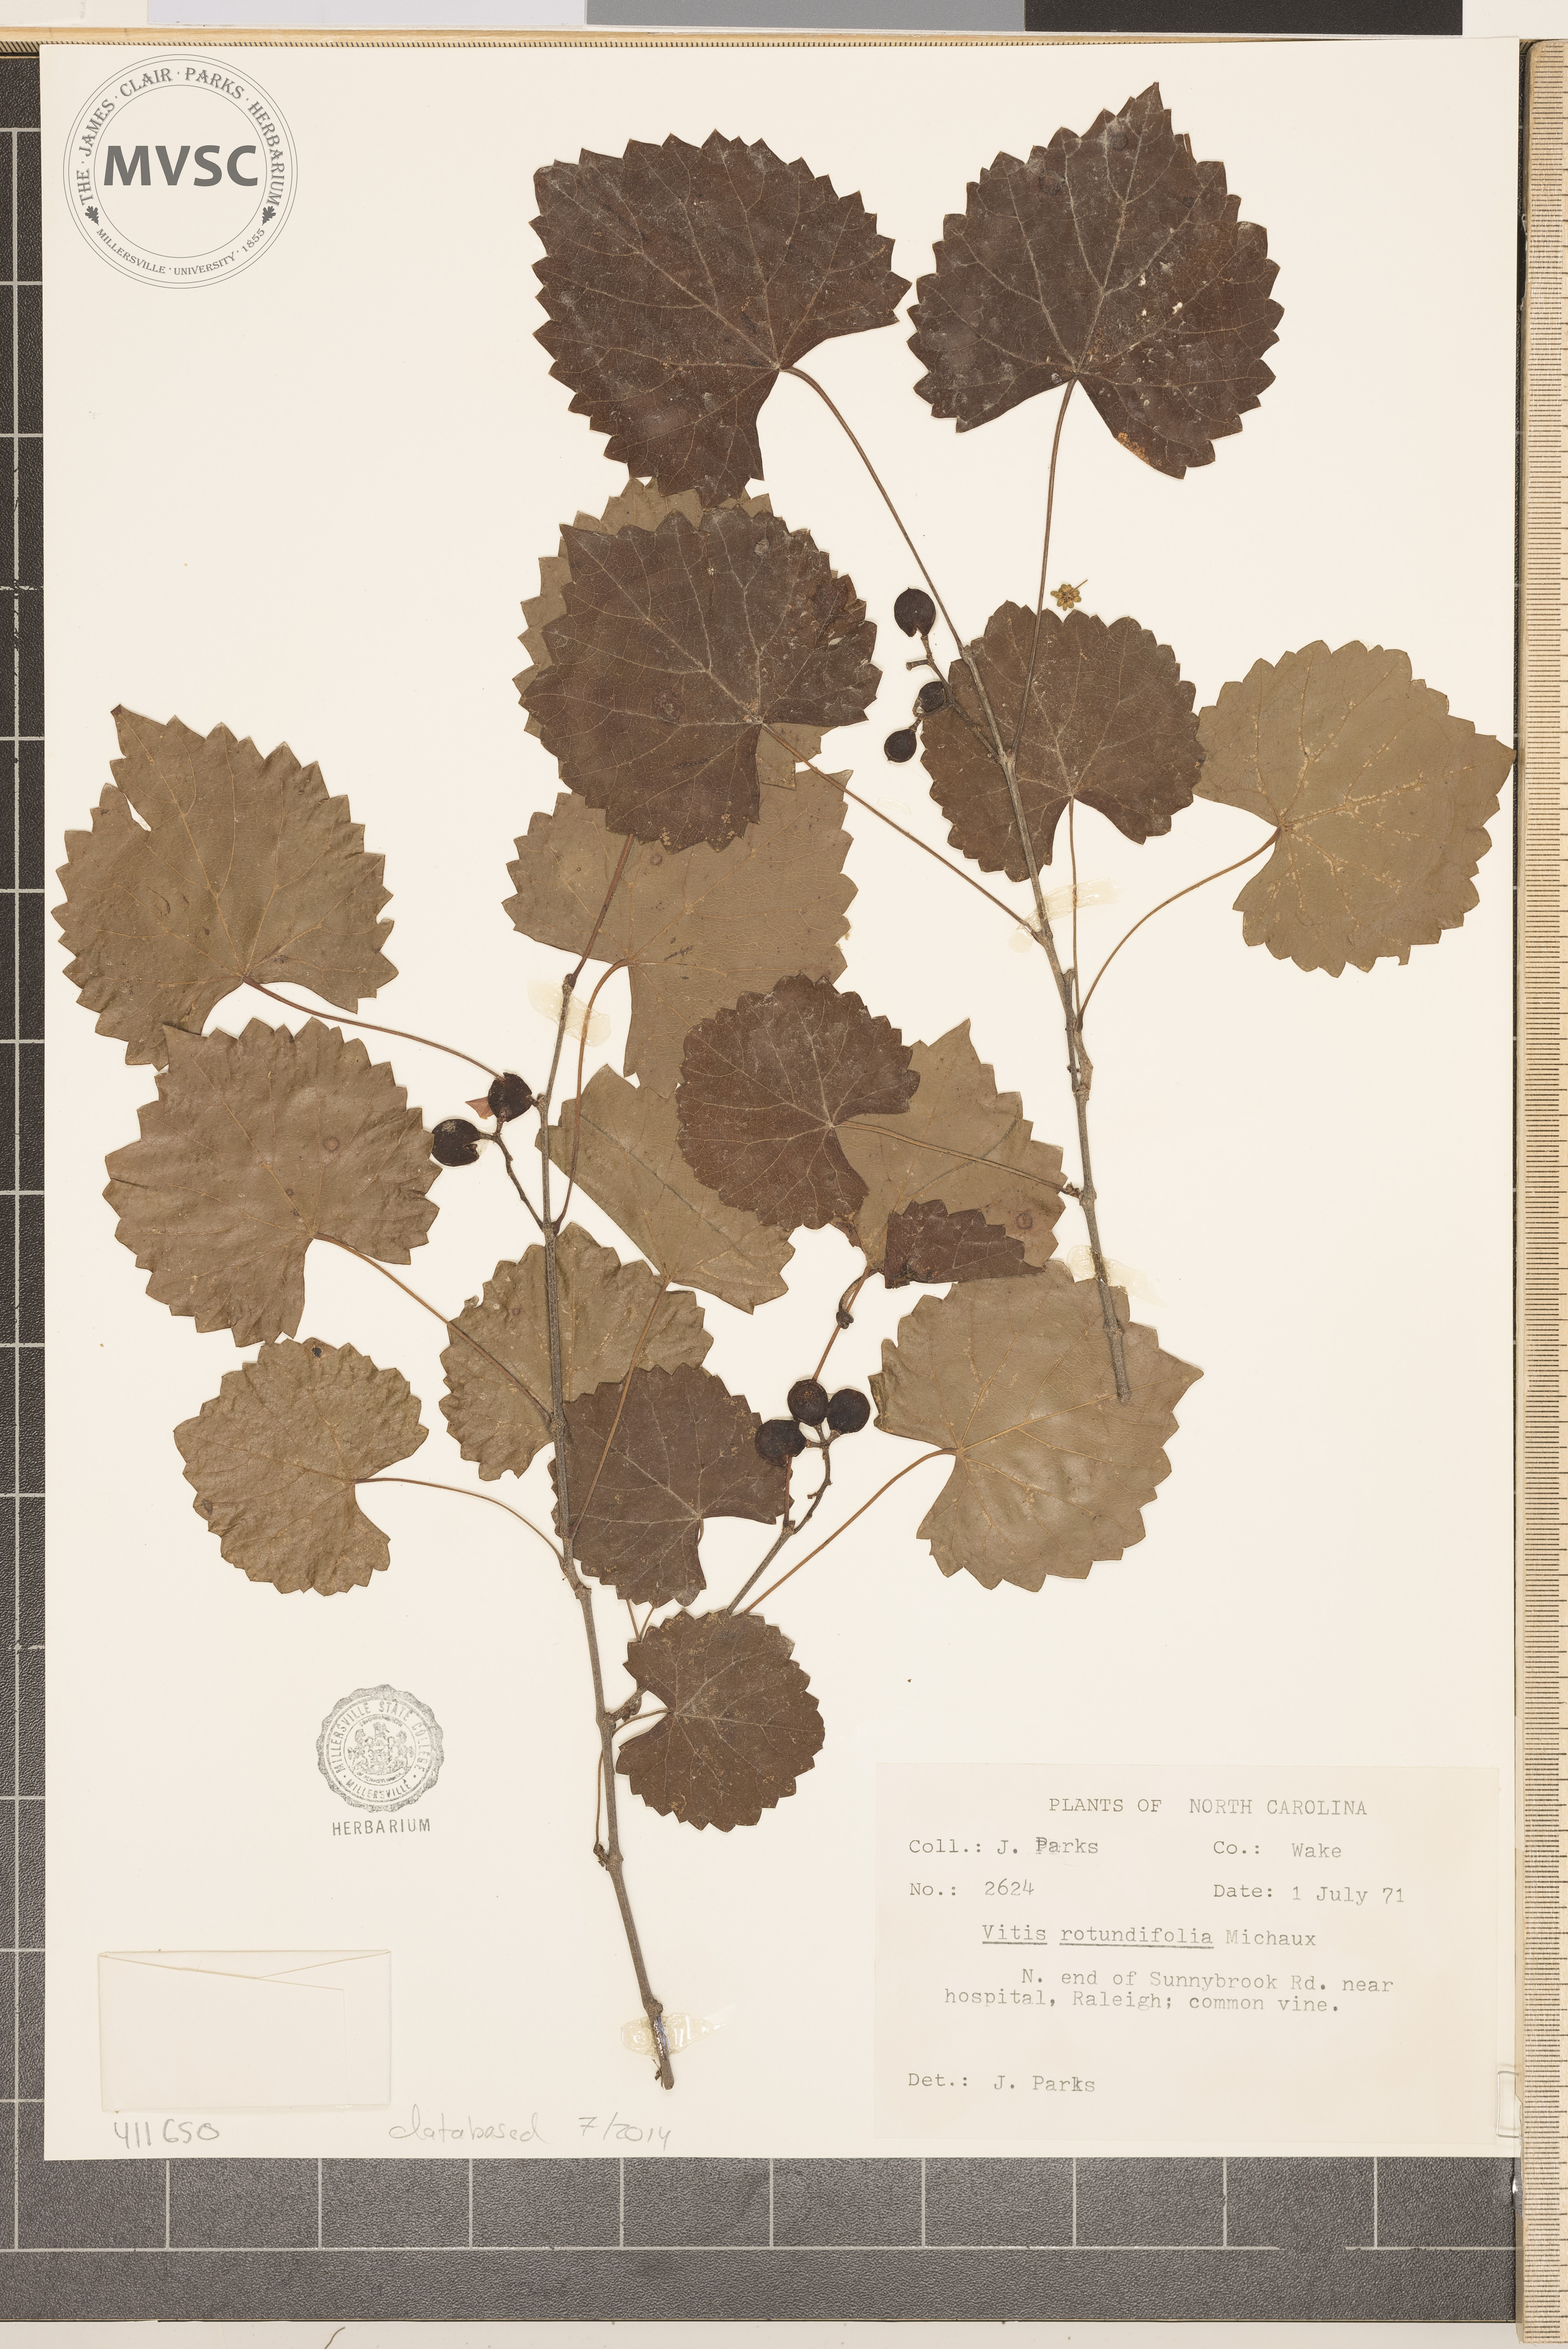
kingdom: Plantae
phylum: Tracheophyta
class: Magnoliopsida
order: Vitales
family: Vitaceae
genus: Vitis
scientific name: Vitis rotundifolia
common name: Muscadine grape
